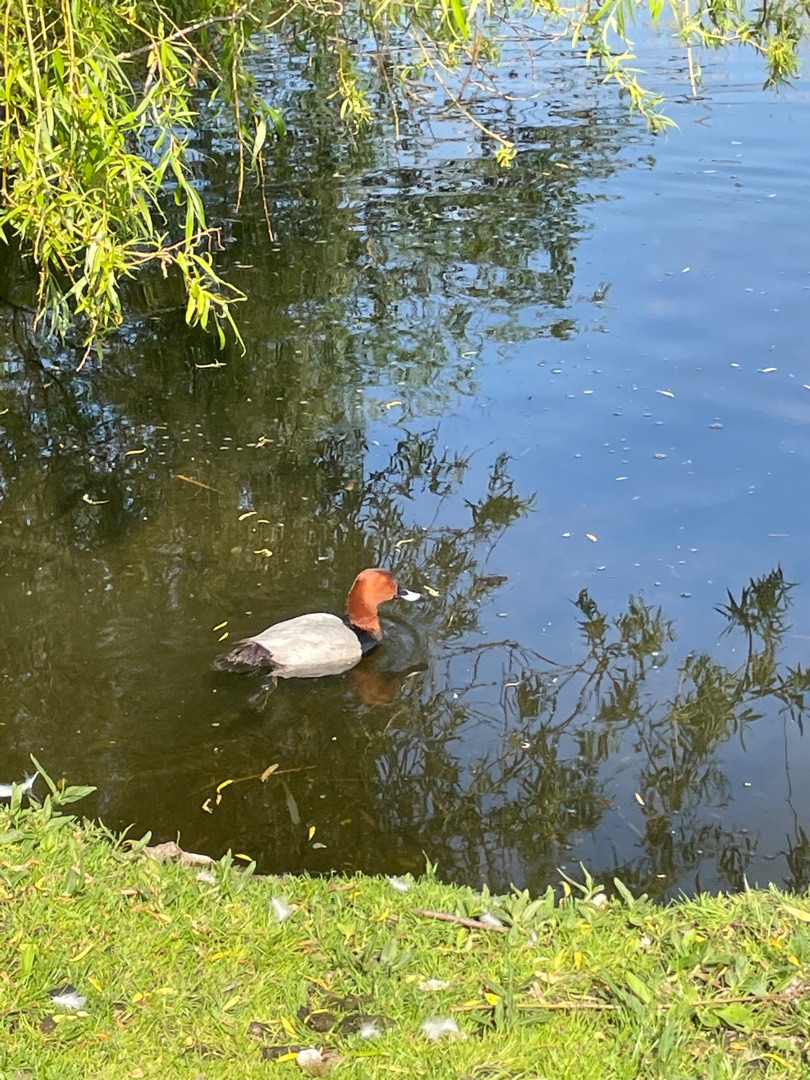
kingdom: Animalia
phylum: Chordata
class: Aves
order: Anseriformes
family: Anatidae
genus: Aythya
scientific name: Aythya ferina
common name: Taffeland
